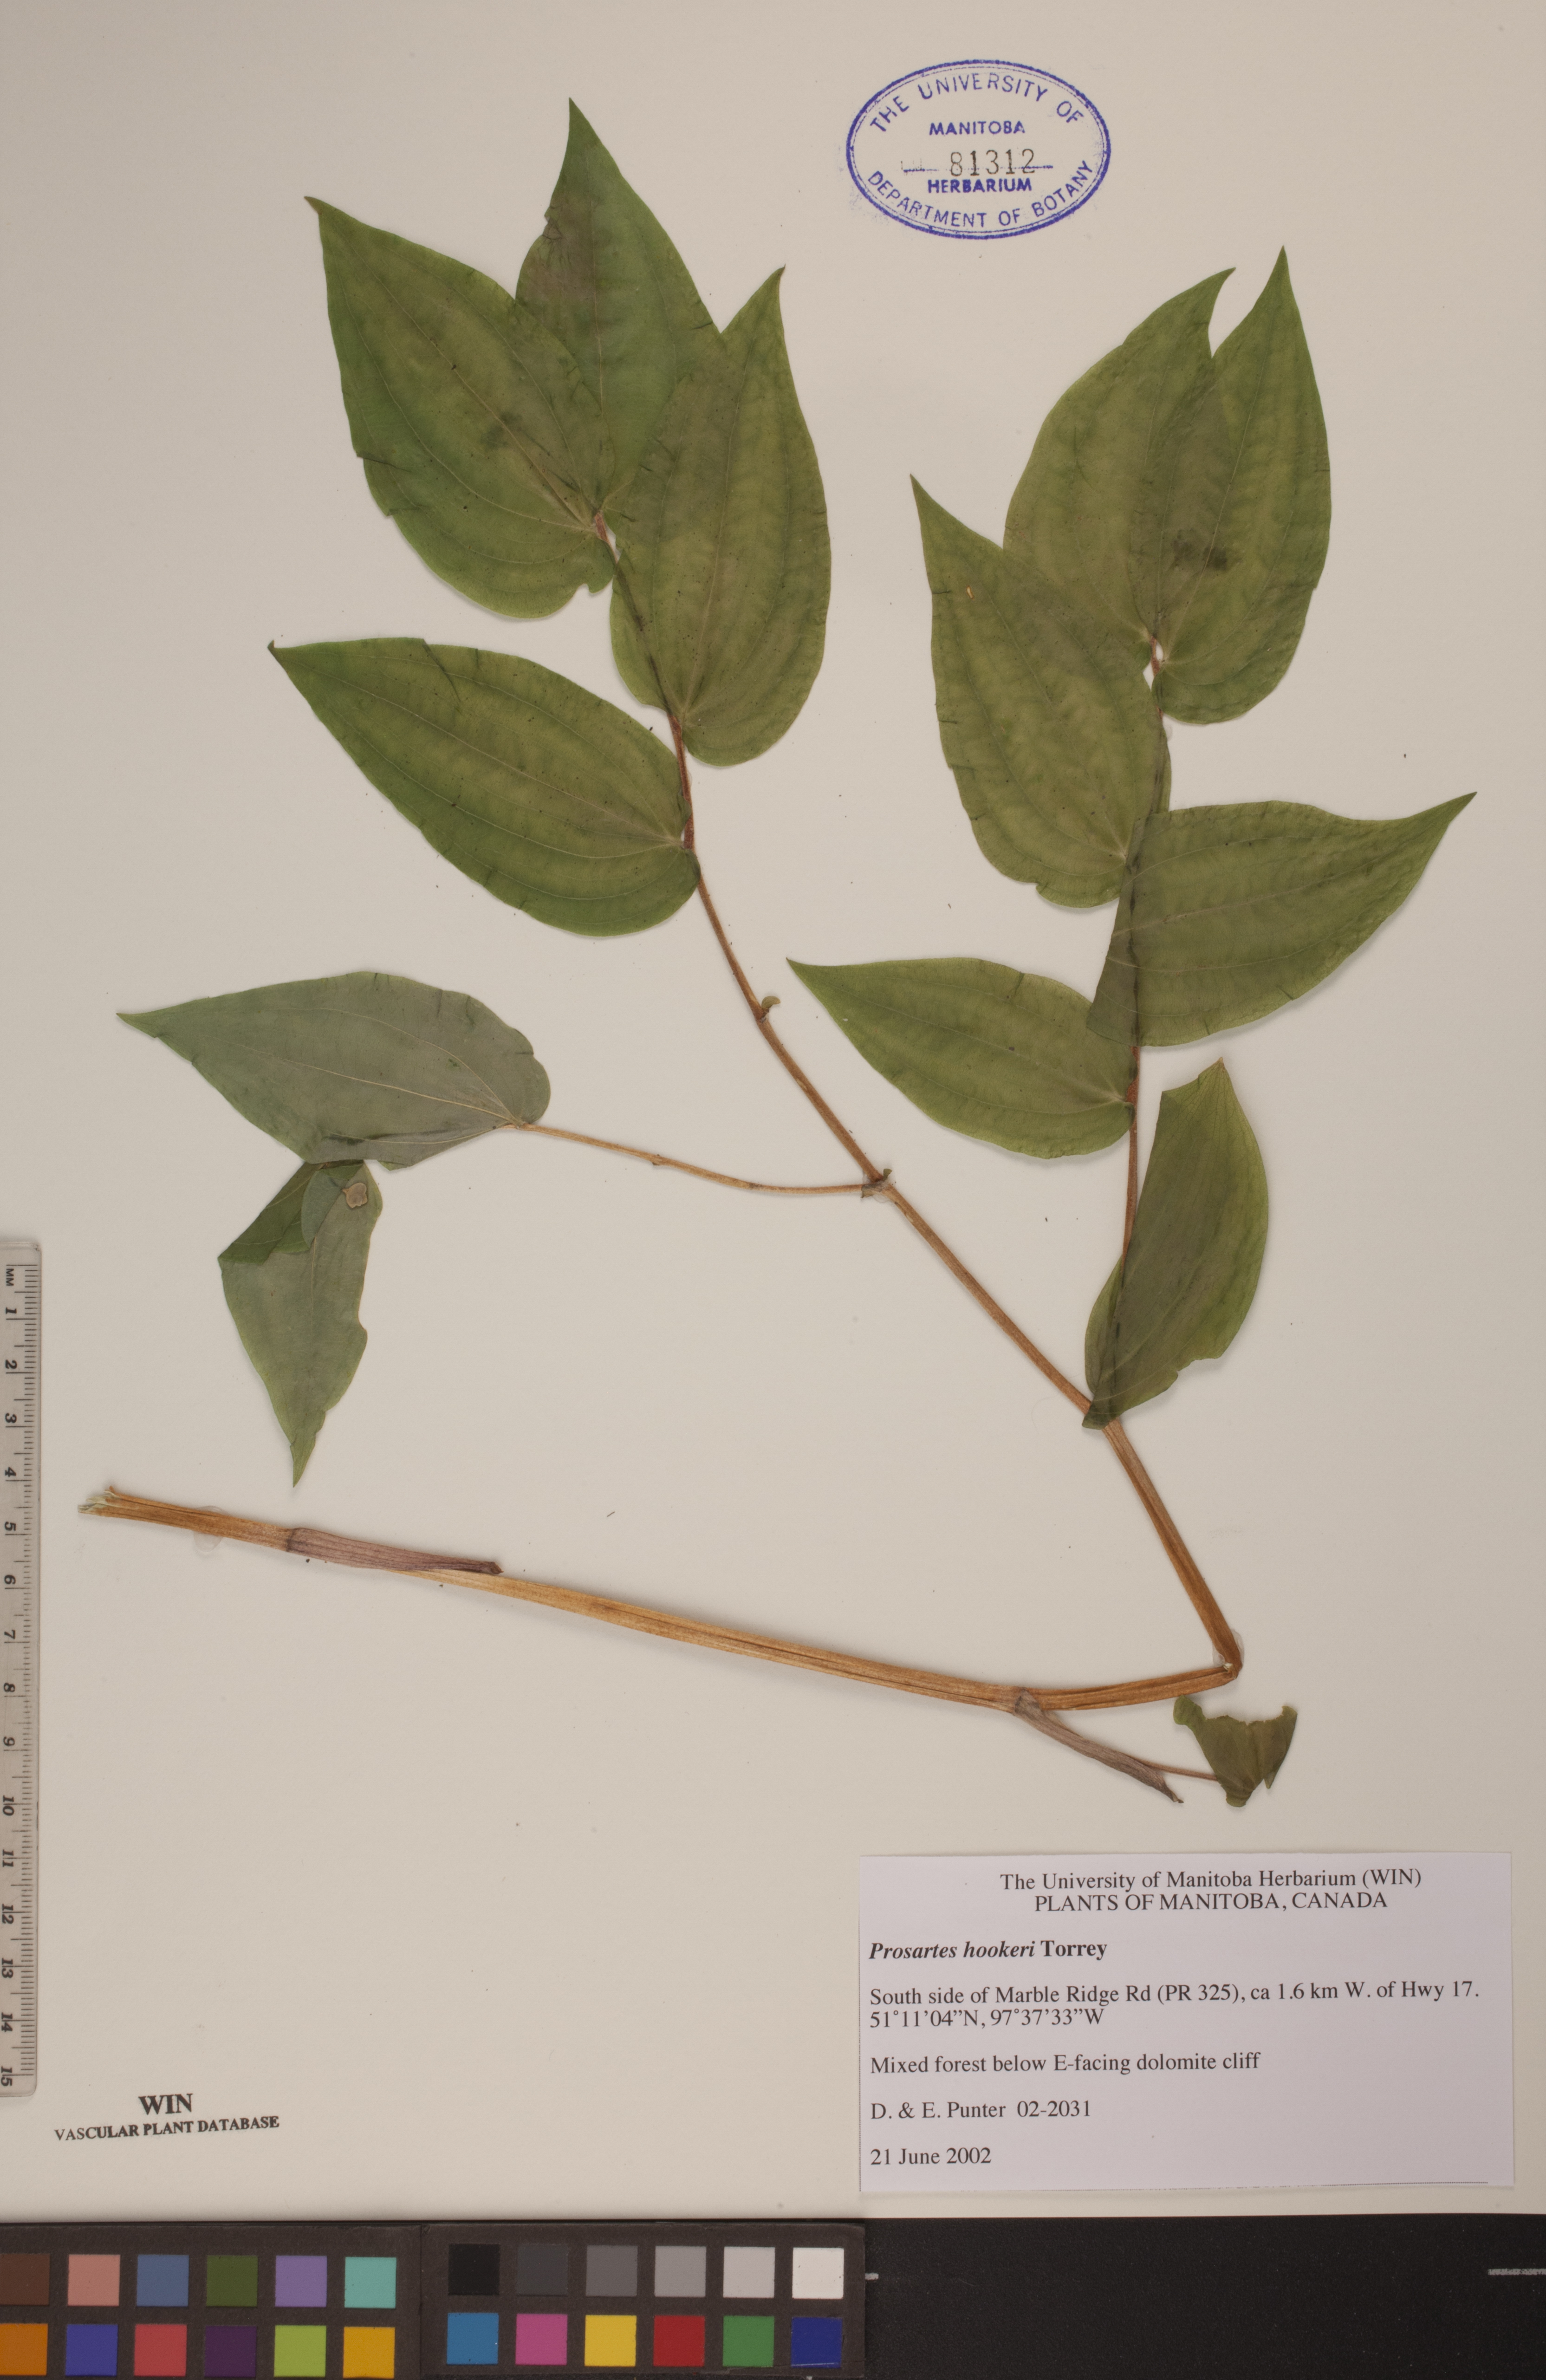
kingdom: Plantae
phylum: Tracheophyta
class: Liliopsida
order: Liliales
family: Liliaceae
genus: Prosartes
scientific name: Prosartes hookeri
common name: Fairy-bells
